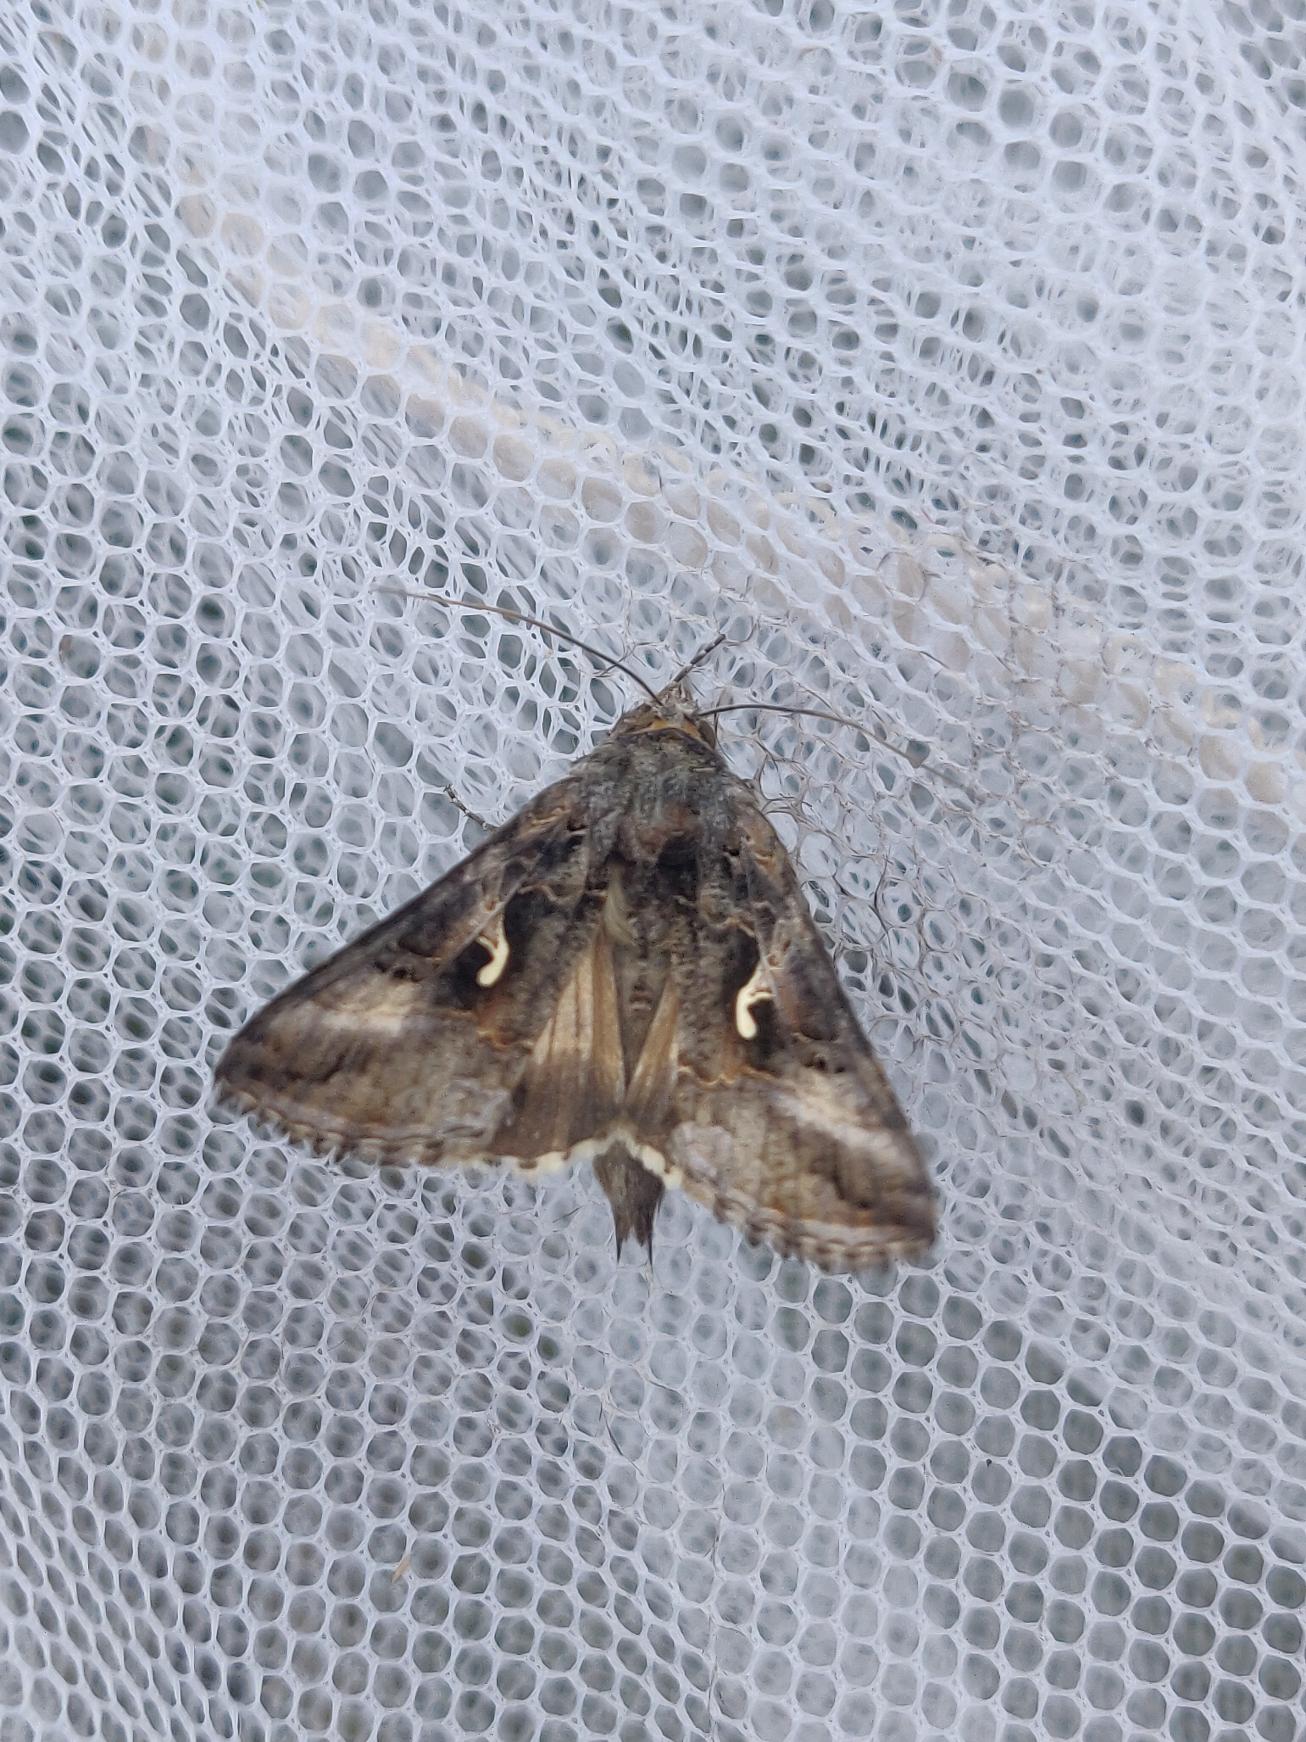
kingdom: Animalia
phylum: Arthropoda
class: Insecta
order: Lepidoptera
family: Noctuidae
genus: Autographa
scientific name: Autographa gamma
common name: Gammaugle
